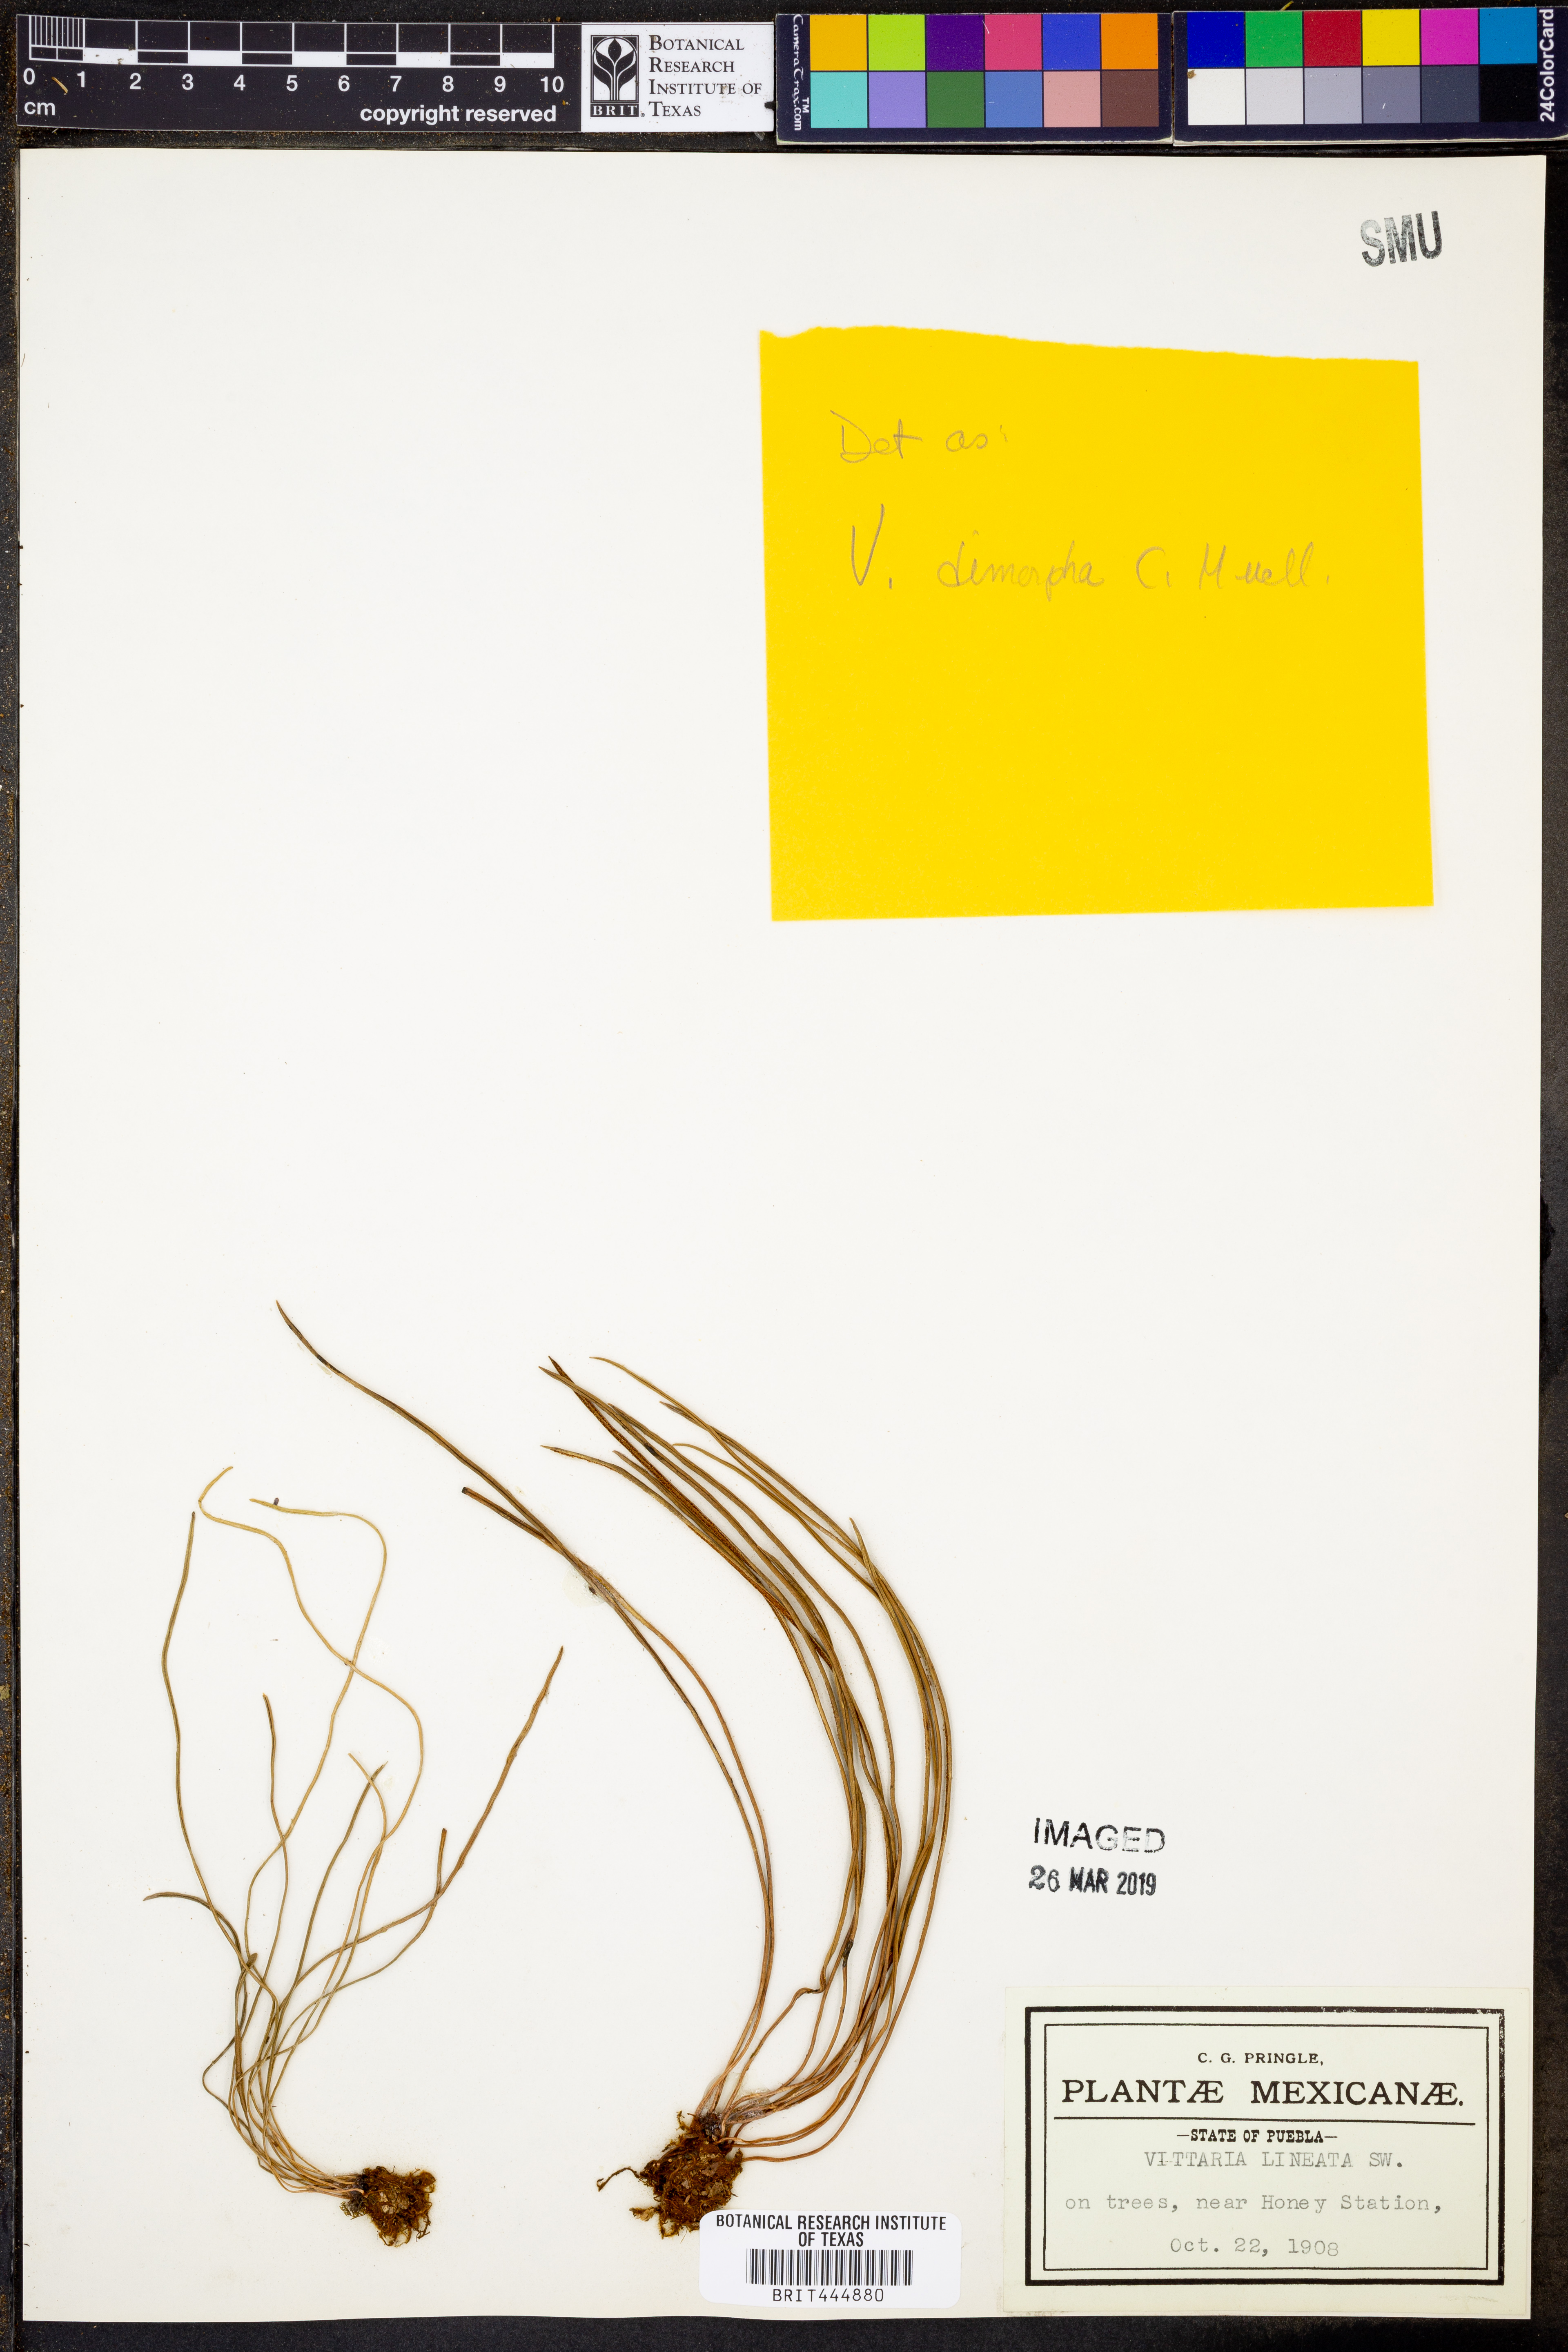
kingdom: Plantae
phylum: Tracheophyta
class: Polypodiopsida
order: Polypodiales
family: Pteridaceae
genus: Vittaria
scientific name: Vittaria lineata
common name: Shoestring fern
